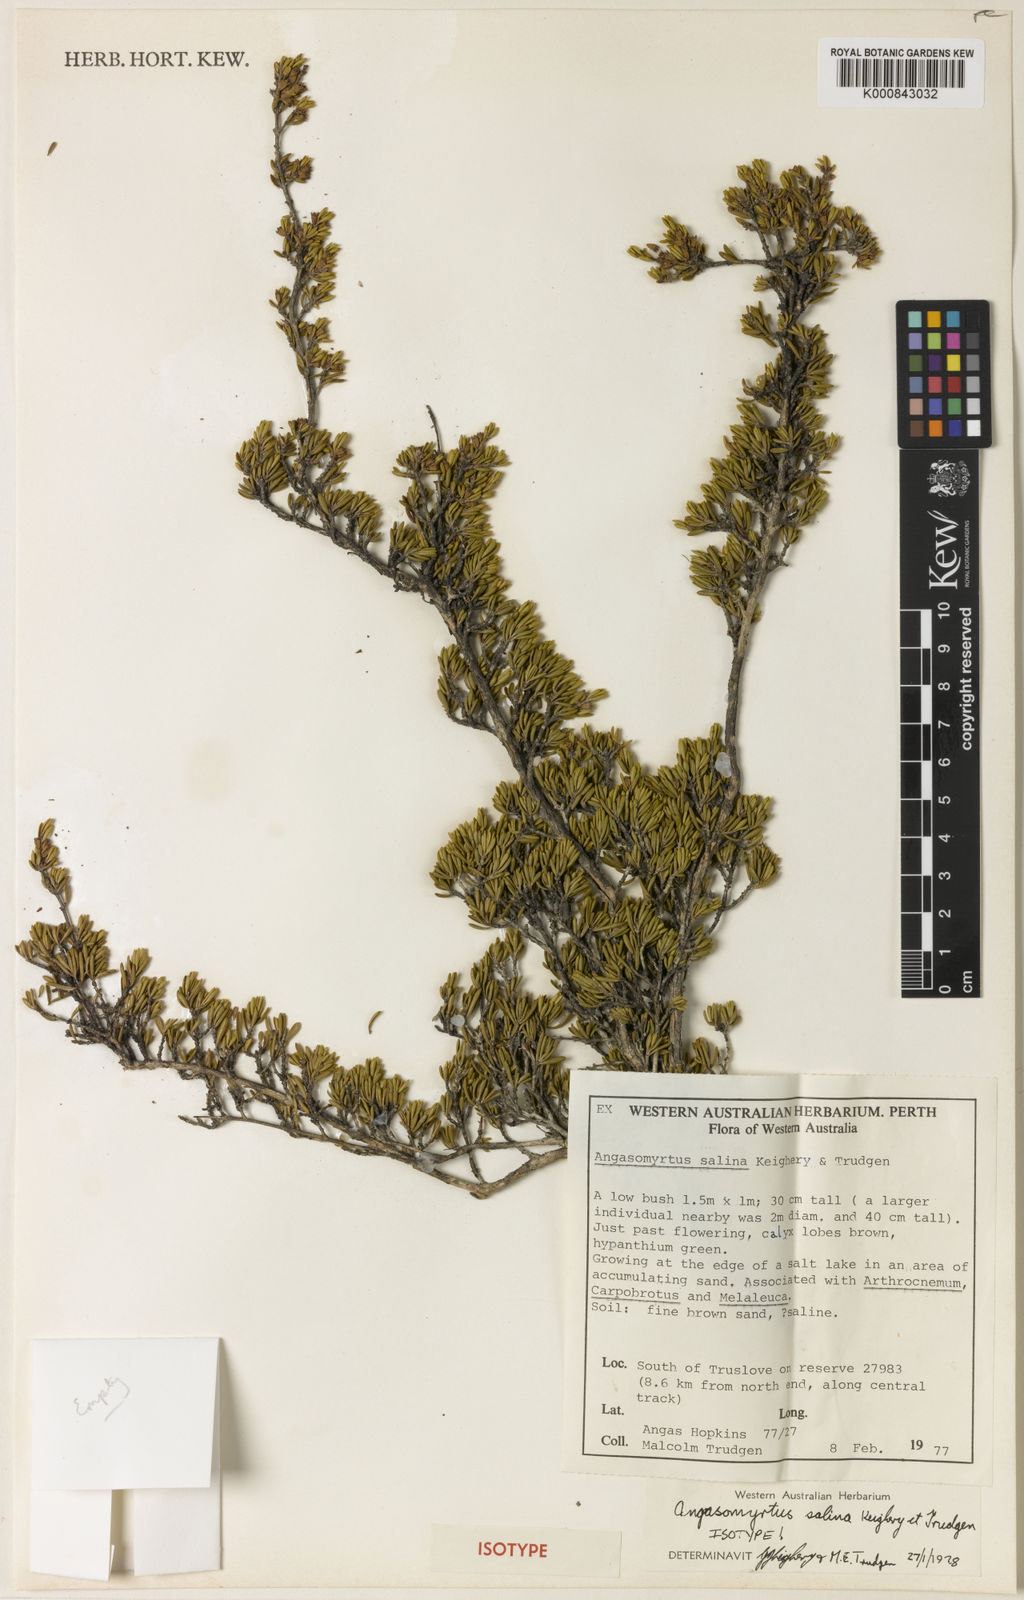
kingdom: Plantae
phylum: Tracheophyta
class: Magnoliopsida
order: Myrtales
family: Myrtaceae
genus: Asteromyrtus
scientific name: Asteromyrtus
